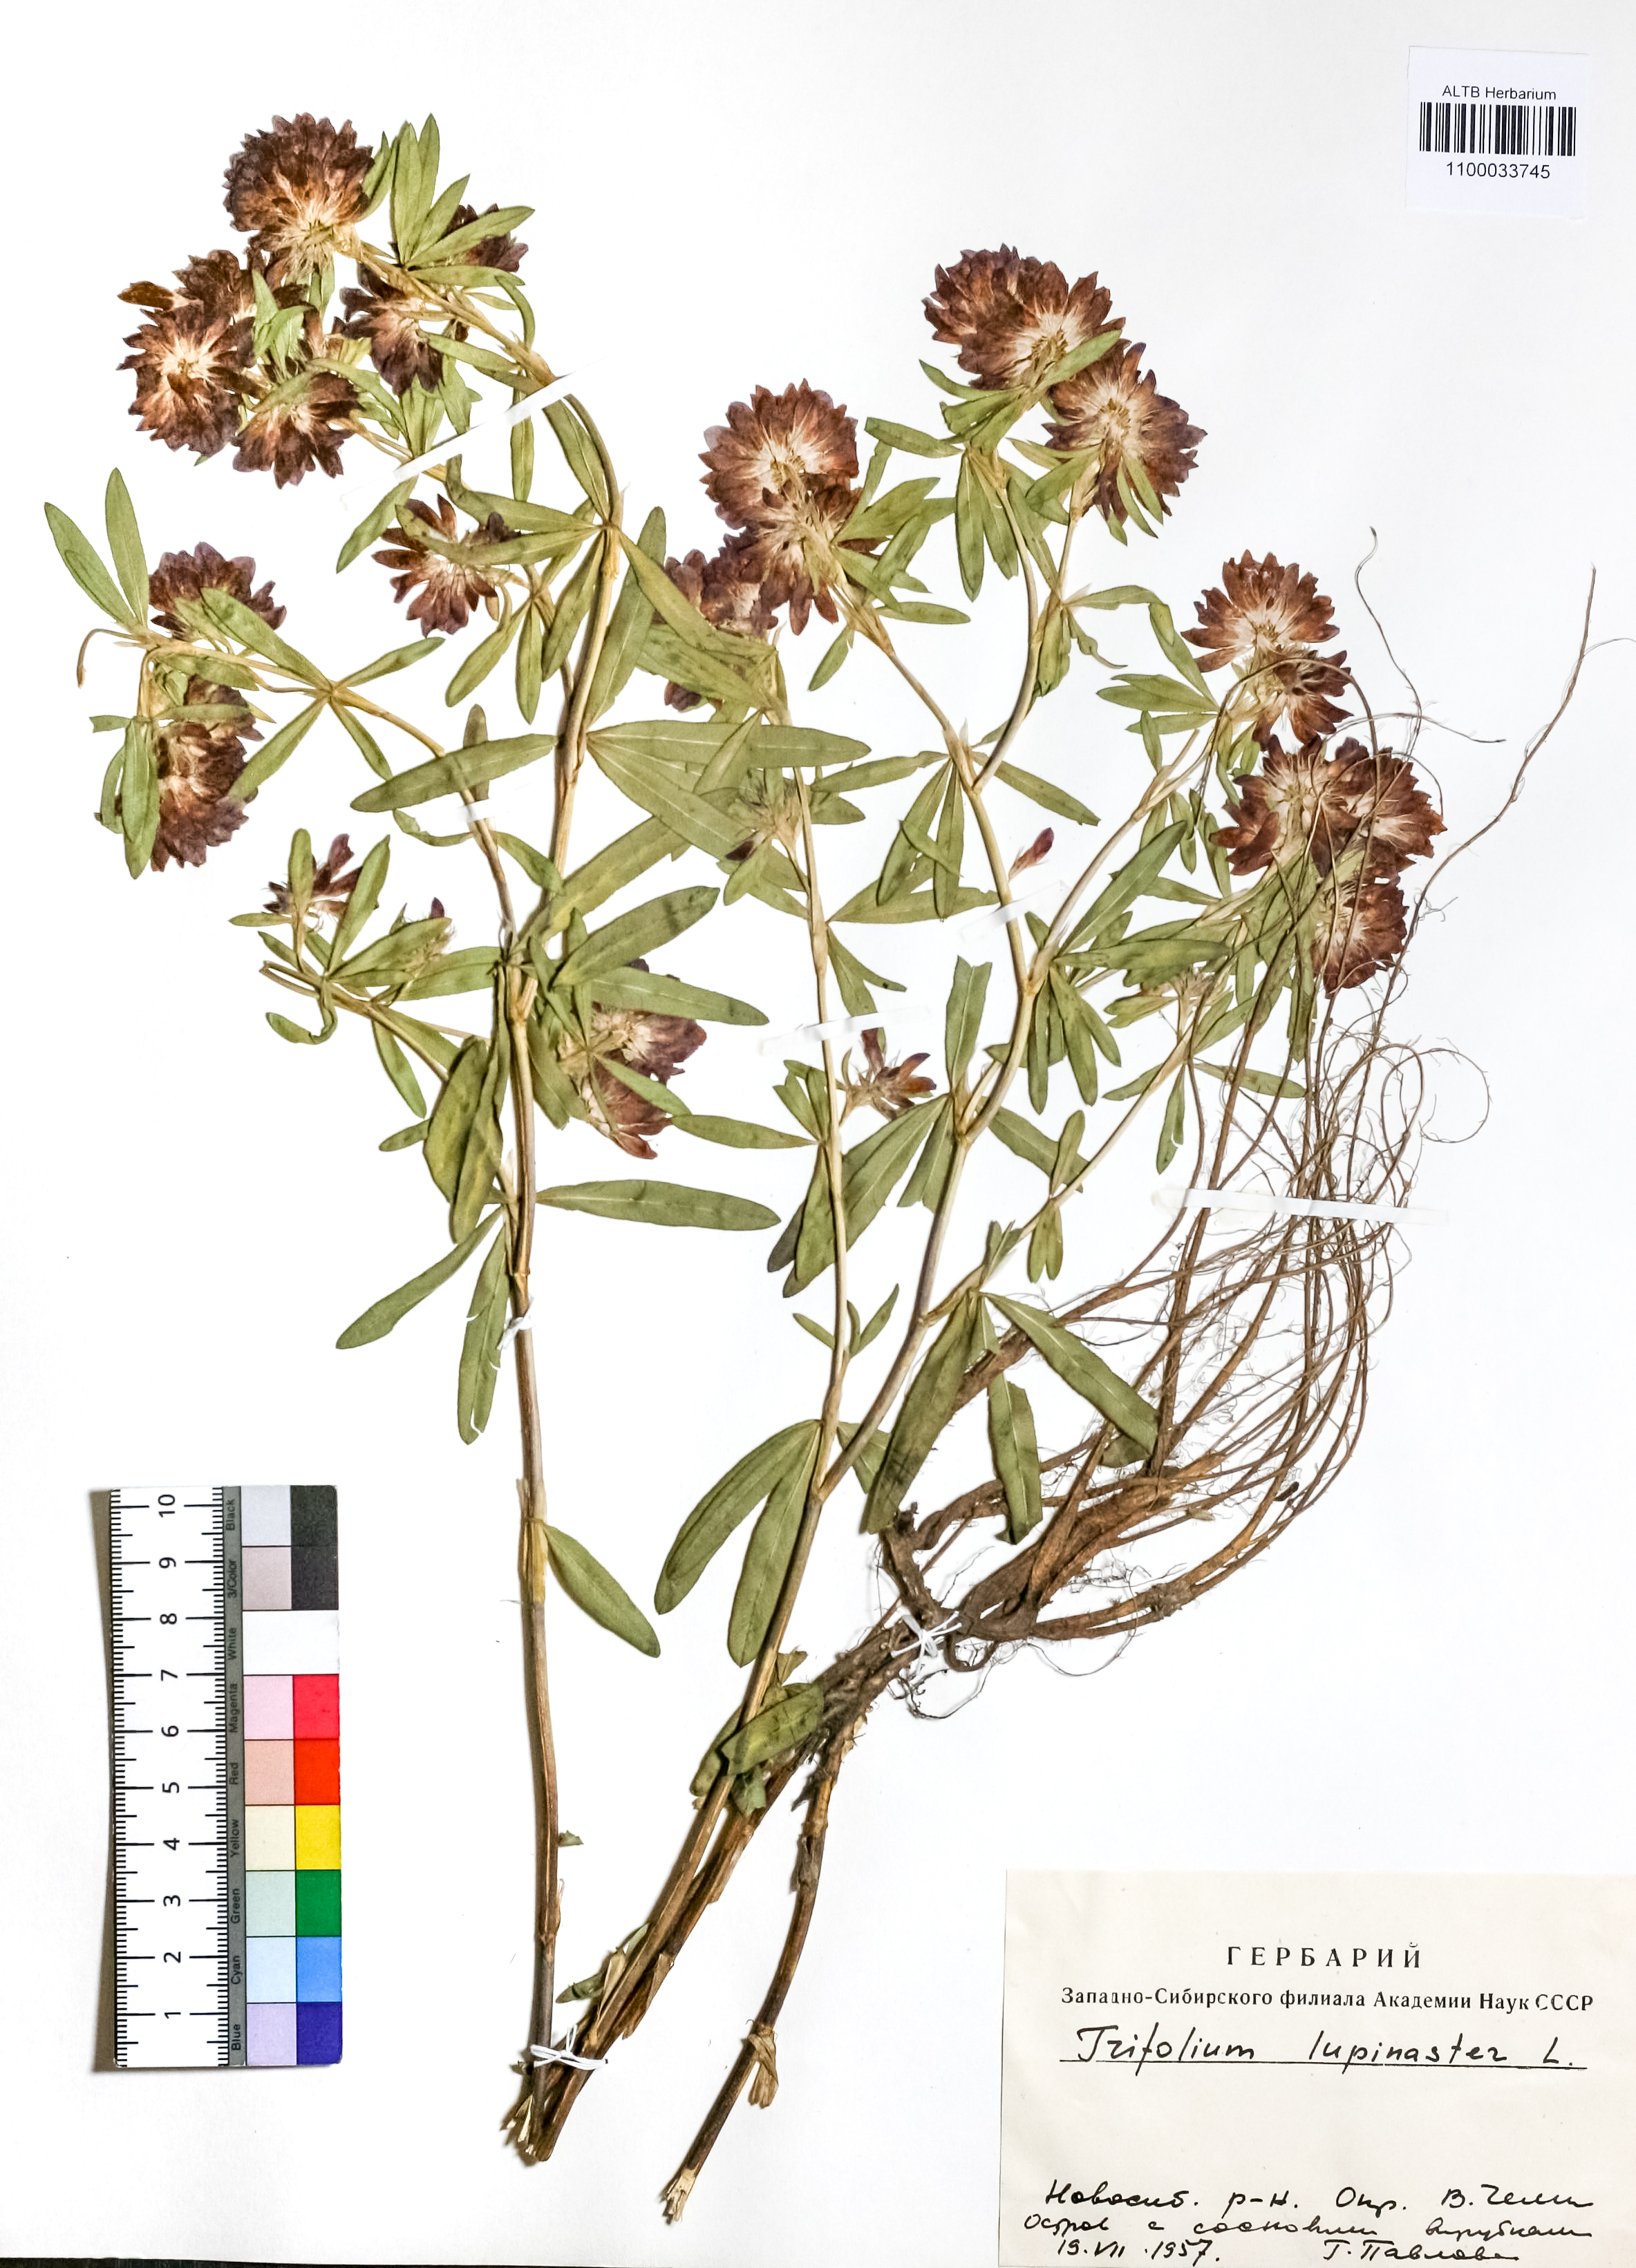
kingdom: Plantae
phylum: Tracheophyta
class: Magnoliopsida
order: Fabales
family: Fabaceae
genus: Trifolium
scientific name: Trifolium lupinaster
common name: Lupine clover
